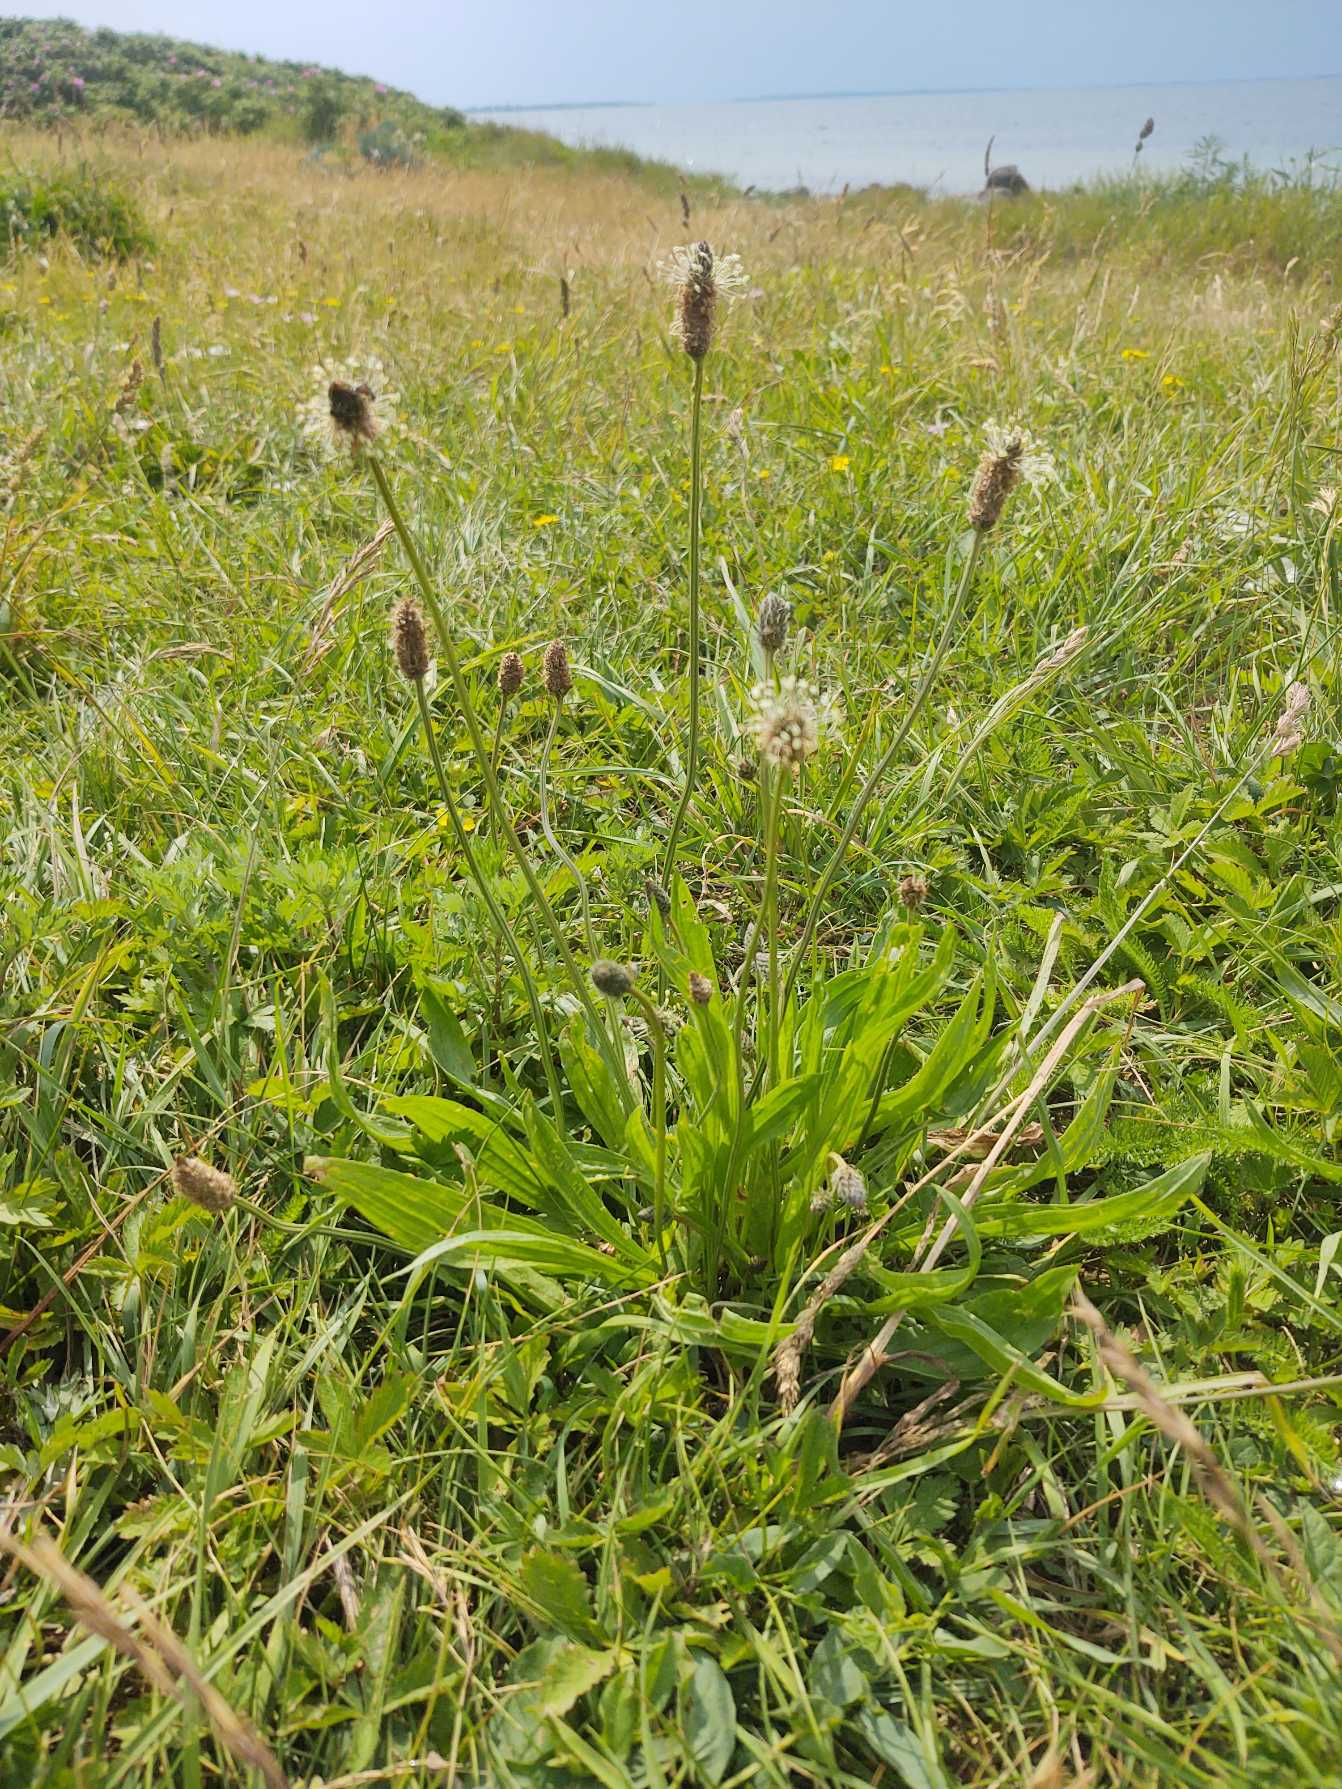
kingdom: Plantae
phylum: Tracheophyta
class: Magnoliopsida
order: Lamiales
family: Plantaginaceae
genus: Plantago
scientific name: Plantago lanceolata
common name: Lancet-vejbred
